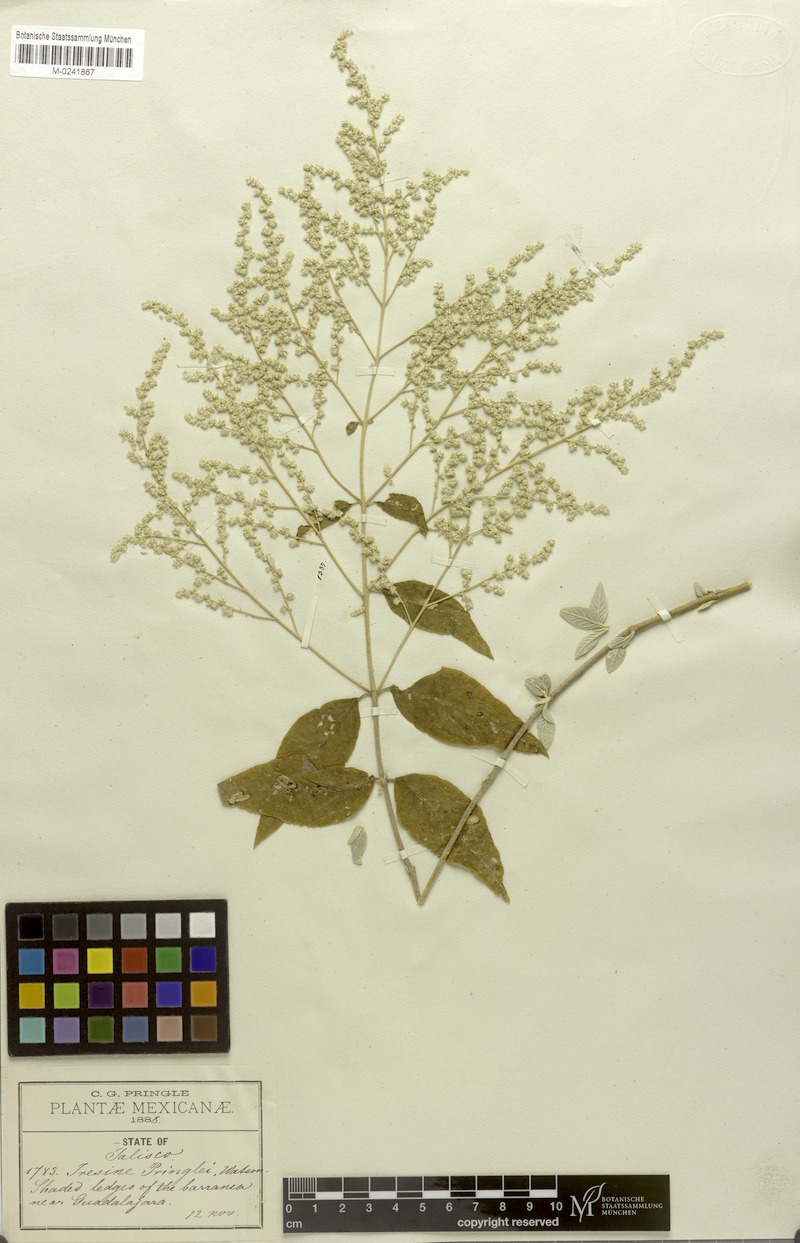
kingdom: Plantae
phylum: Tracheophyta
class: Magnoliopsida
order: Caryophyllales
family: Amaranthaceae
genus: Iresine
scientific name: Iresine pringlei
